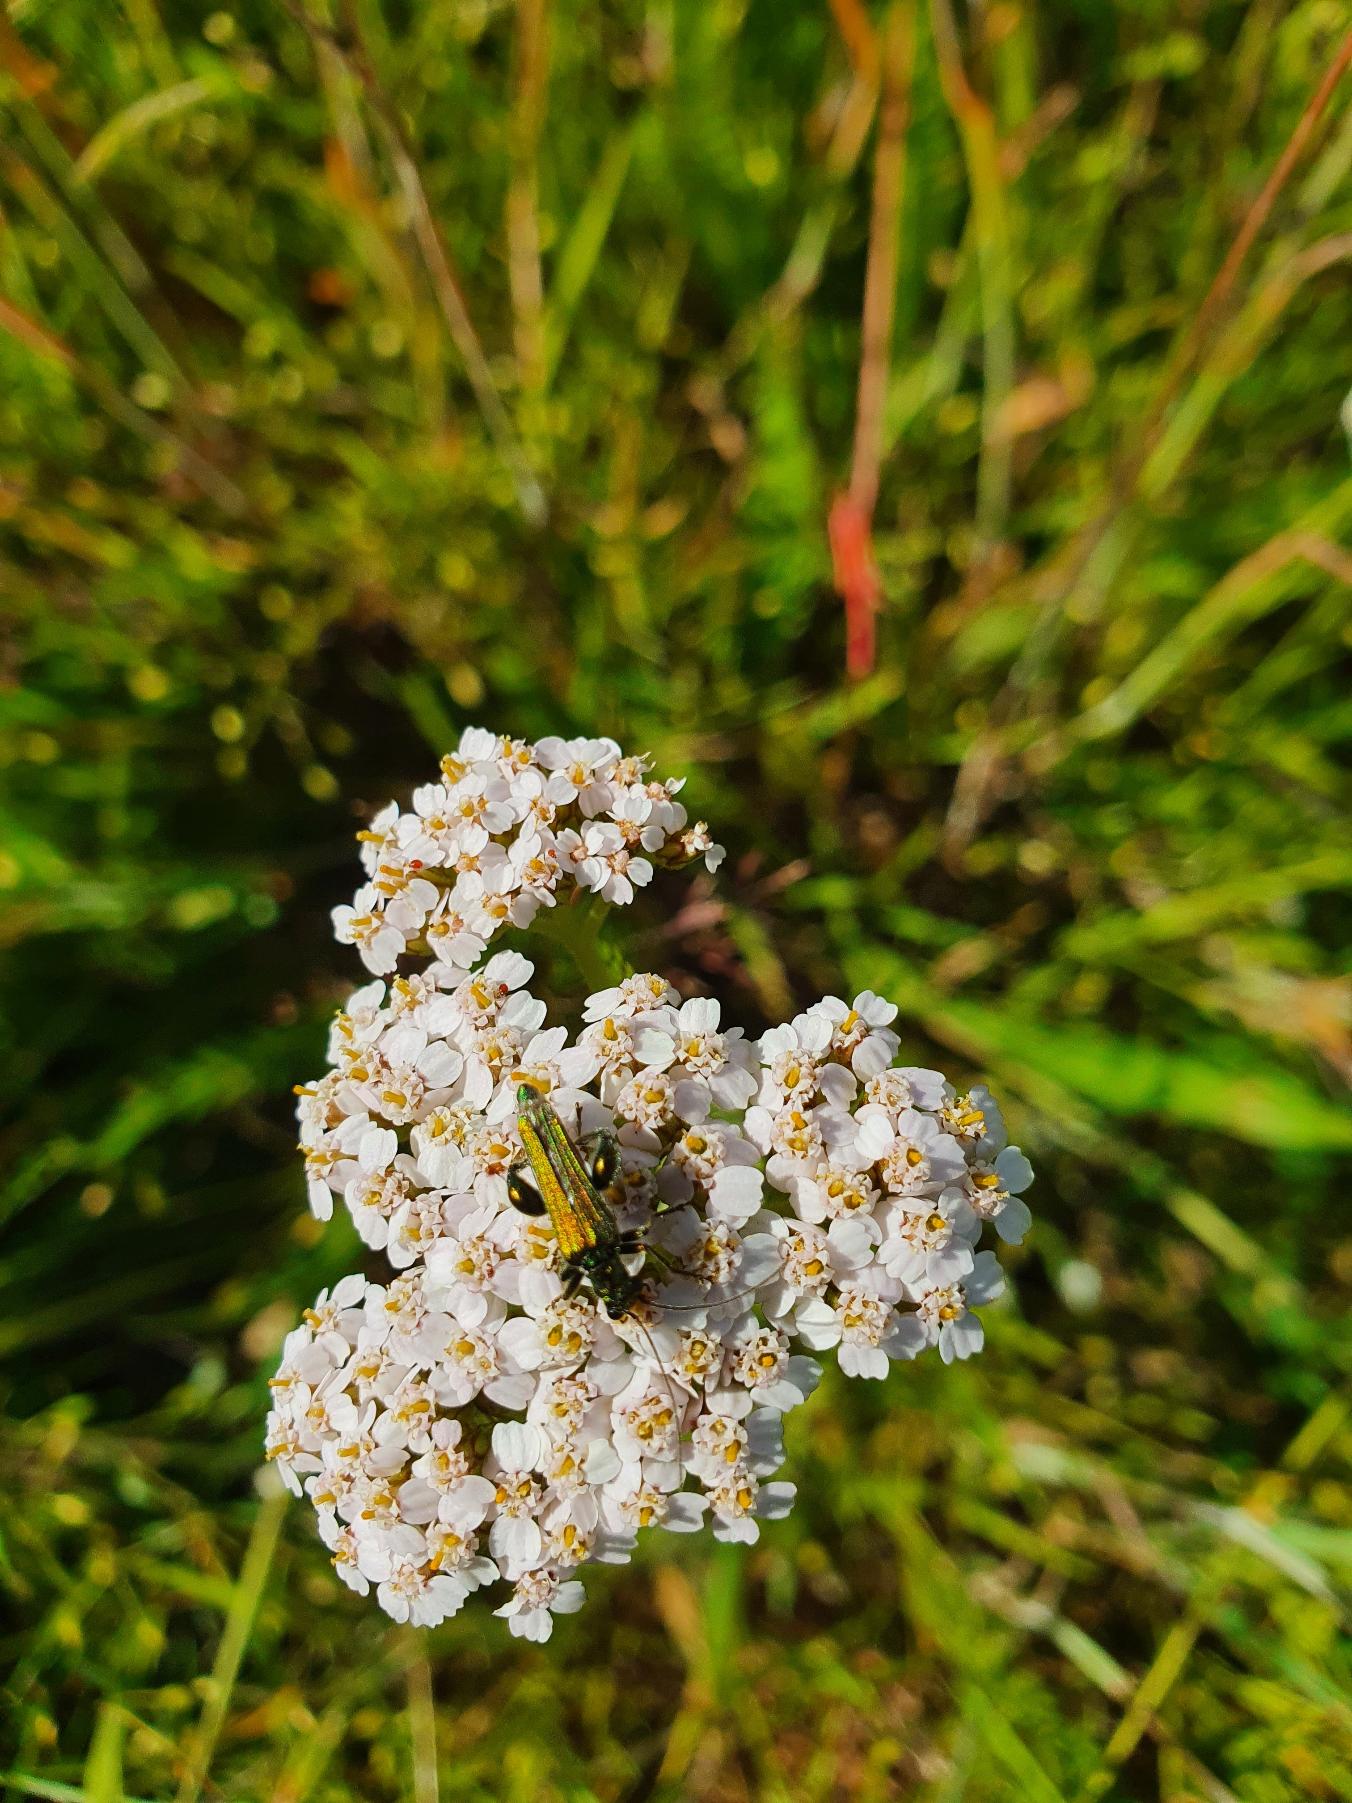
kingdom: Animalia
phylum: Arthropoda
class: Insecta
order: Coleoptera
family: Oedemeridae
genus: Oedemera
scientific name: Oedemera nobilis
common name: Tyklårssolbille
